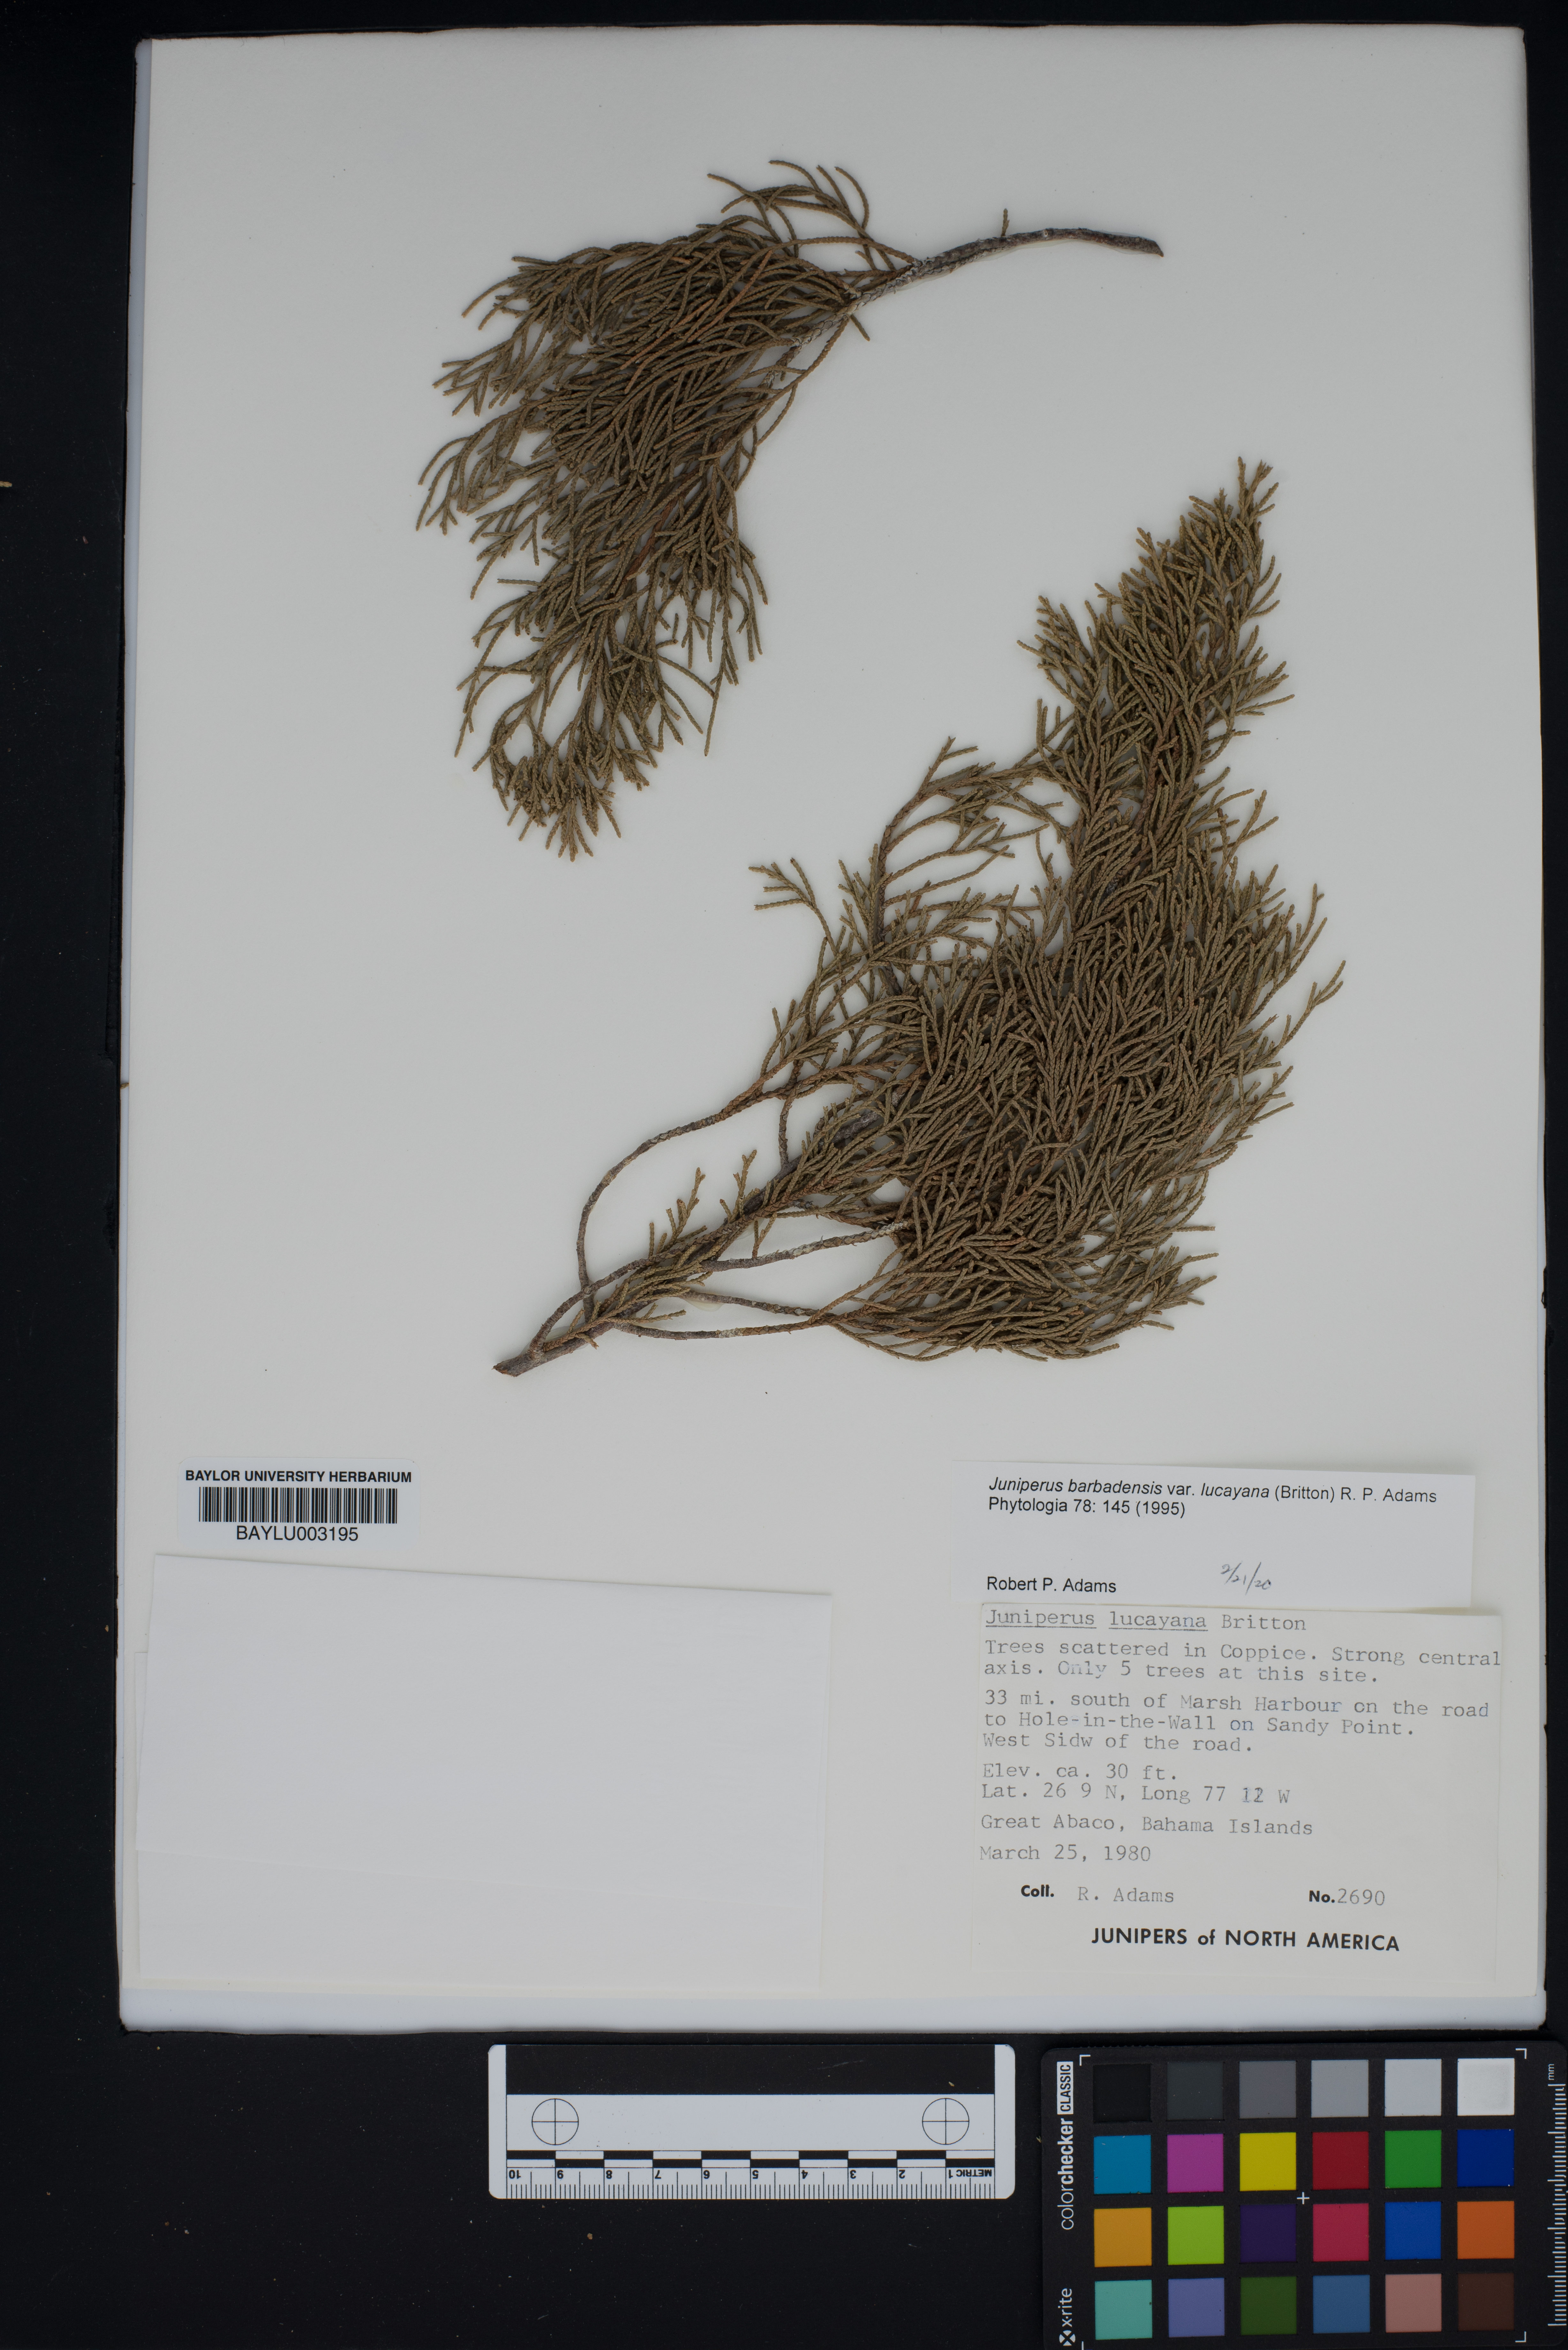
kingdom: Plantae
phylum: Tracheophyta
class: Pinopsida
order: Pinales
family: Cupressaceae
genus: Juniperus
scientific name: Juniperus barbadensis
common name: West indies juniper
